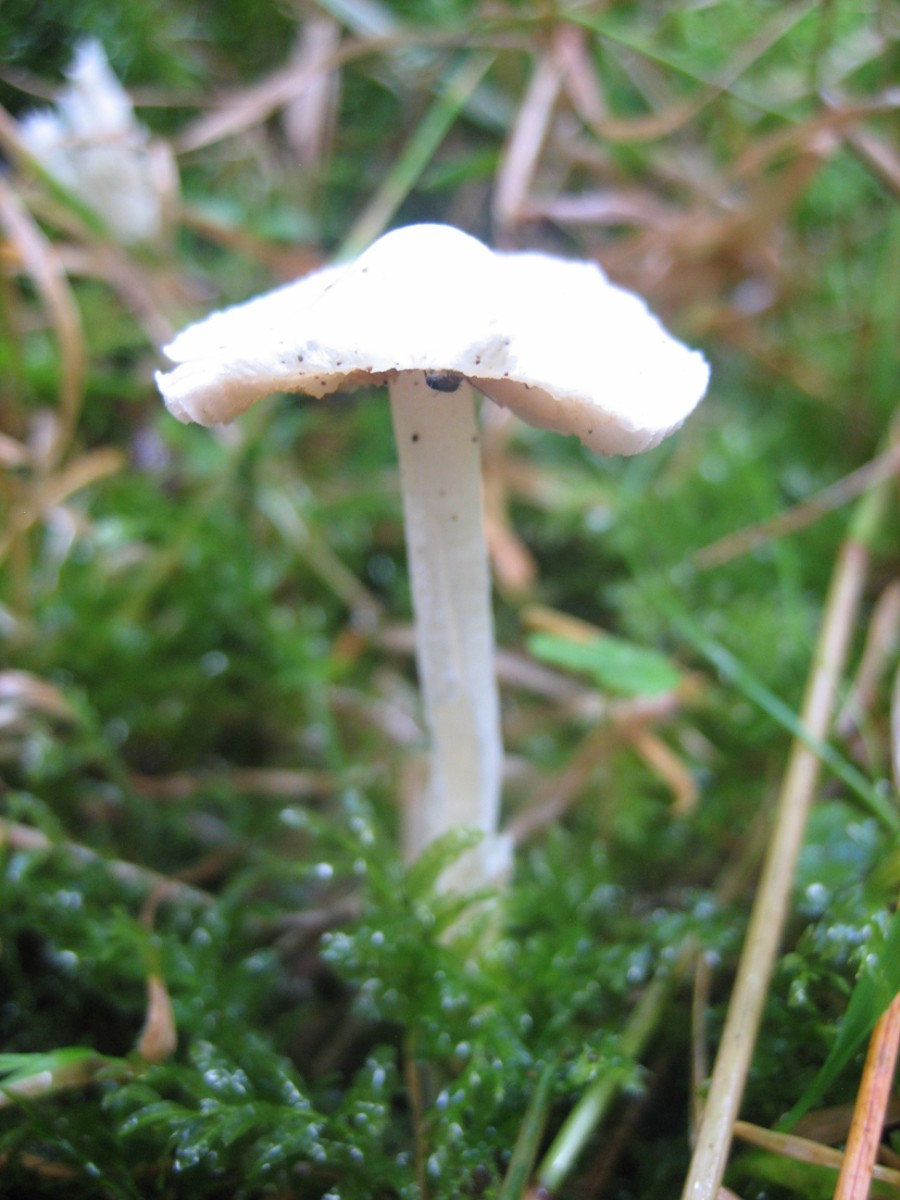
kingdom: Fungi
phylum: Basidiomycota
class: Agaricomycetes
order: Agaricales
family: Inocybaceae
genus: Inocybe
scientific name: Inocybe
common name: trævlhat
